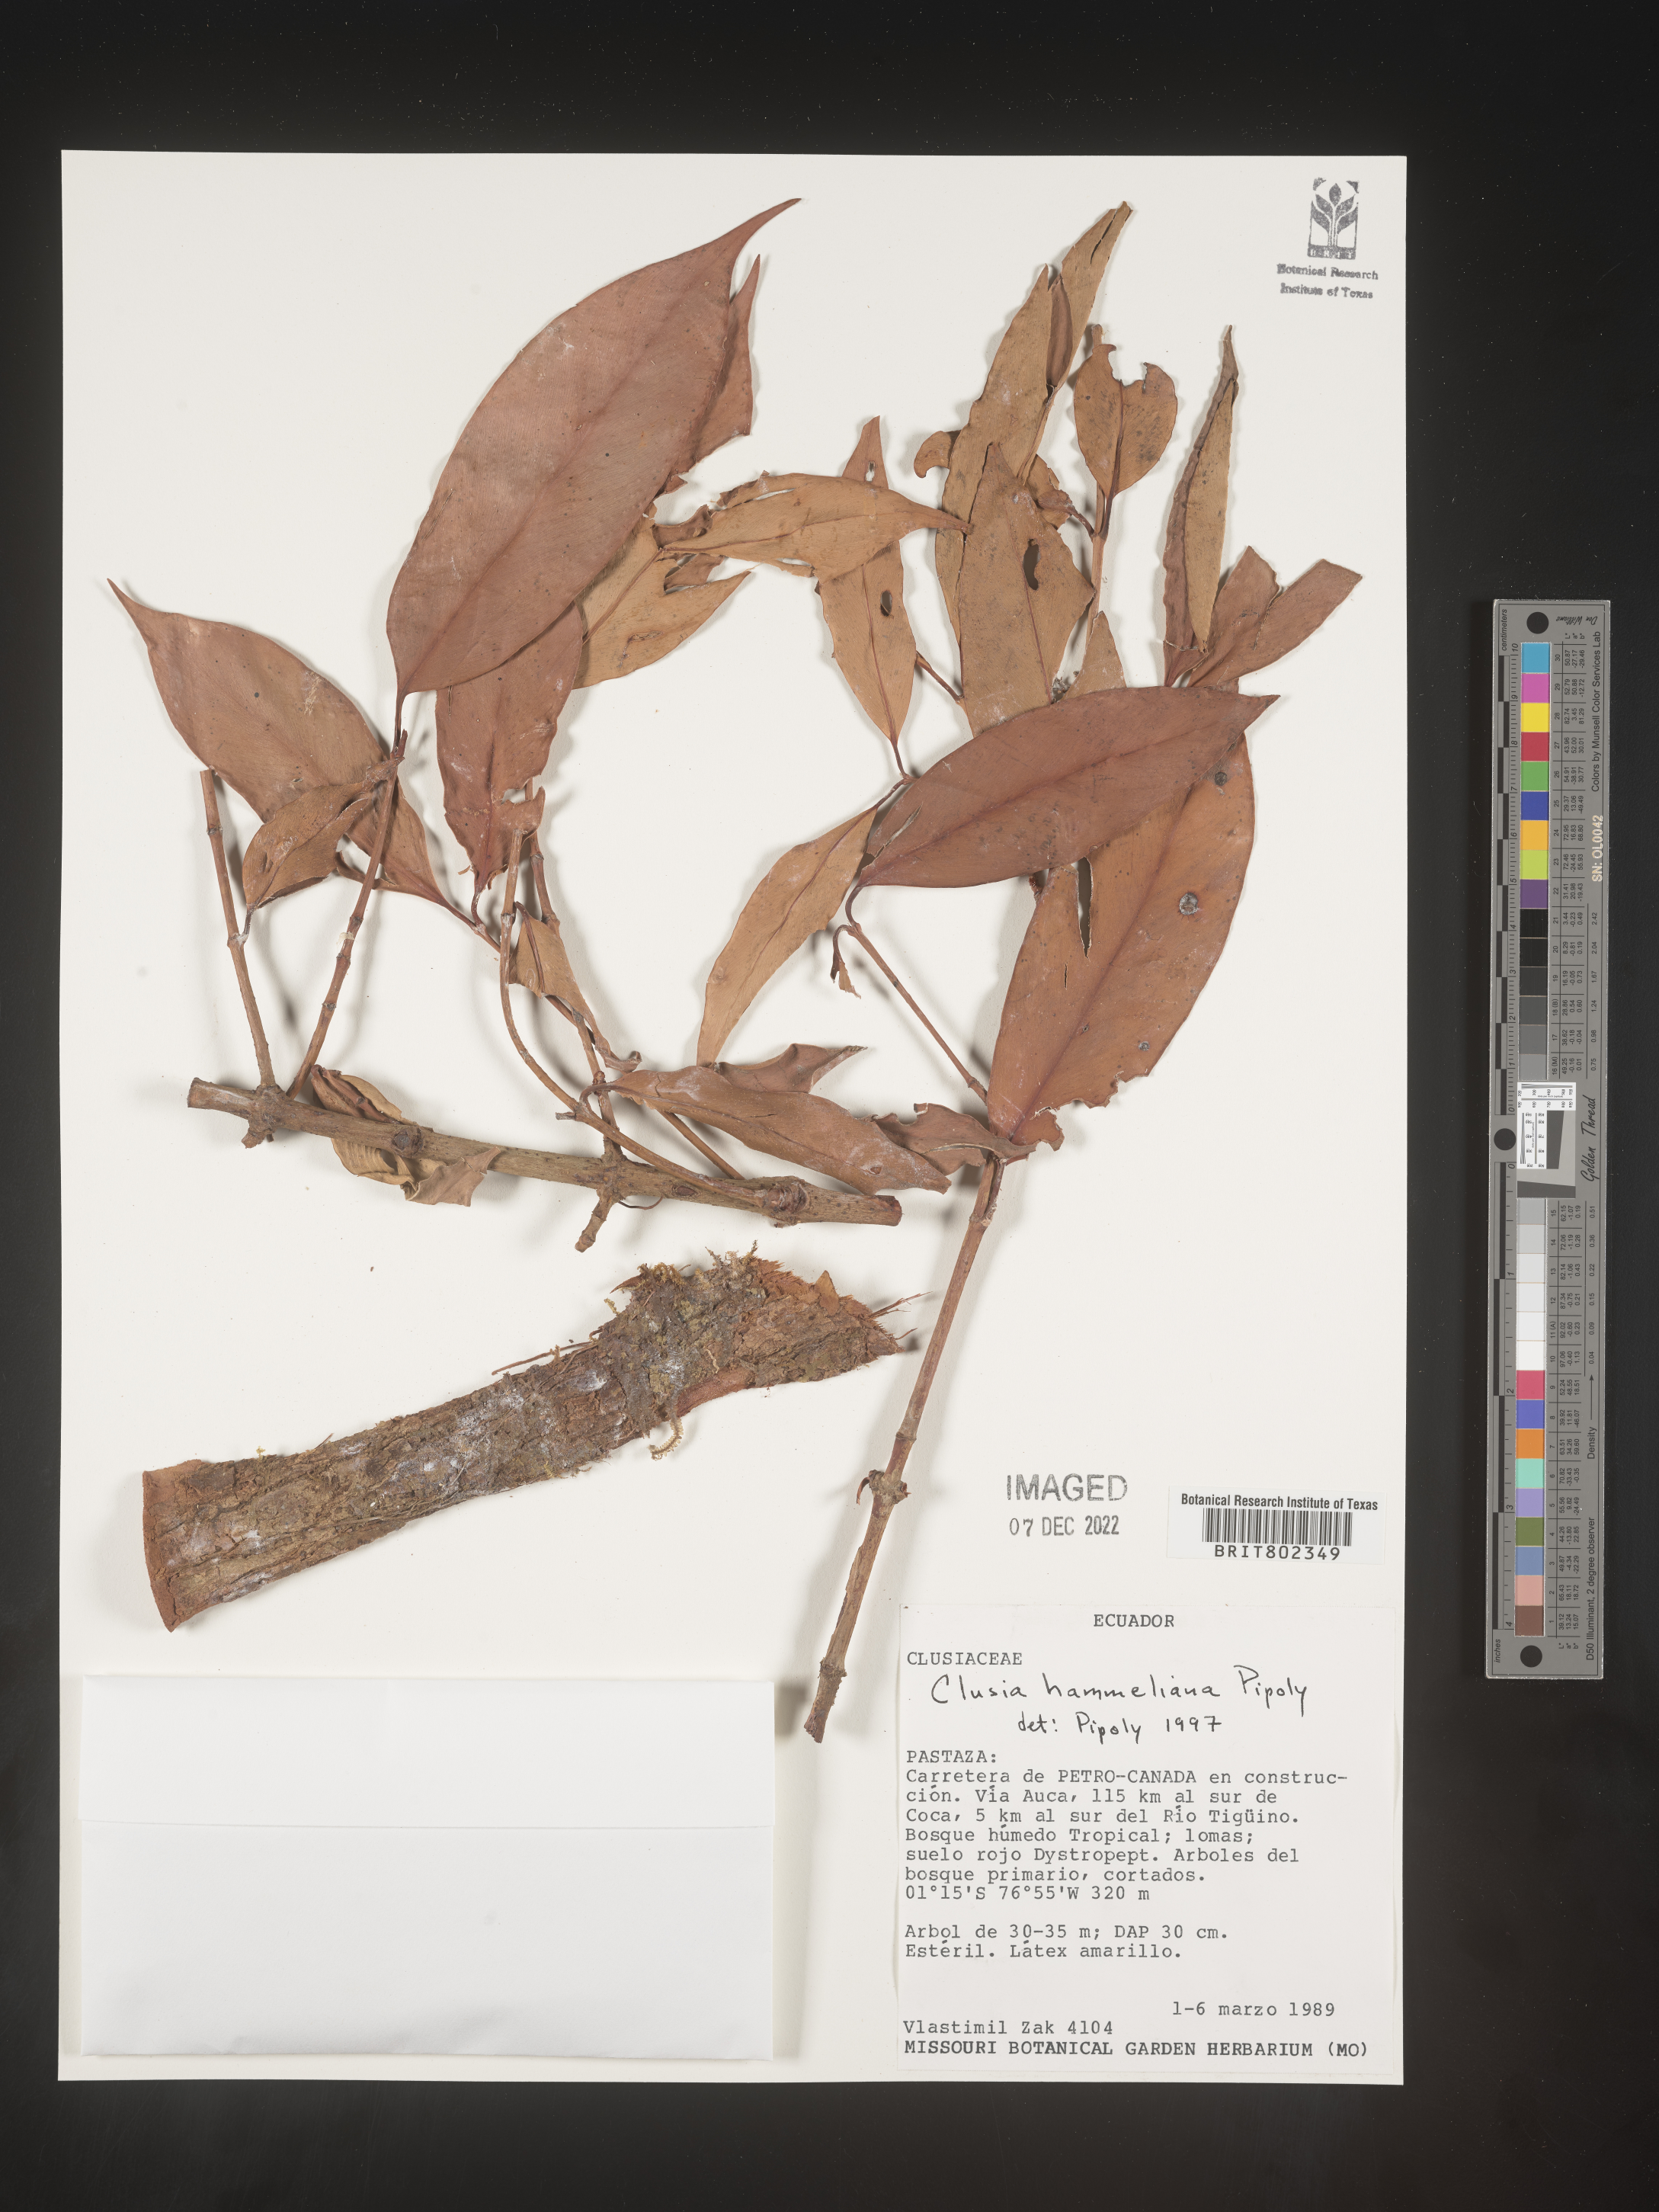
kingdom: Plantae
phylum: Tracheophyta
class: Magnoliopsida
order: Malpighiales
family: Clusiaceae
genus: Clusia
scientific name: Clusia hammeliana
